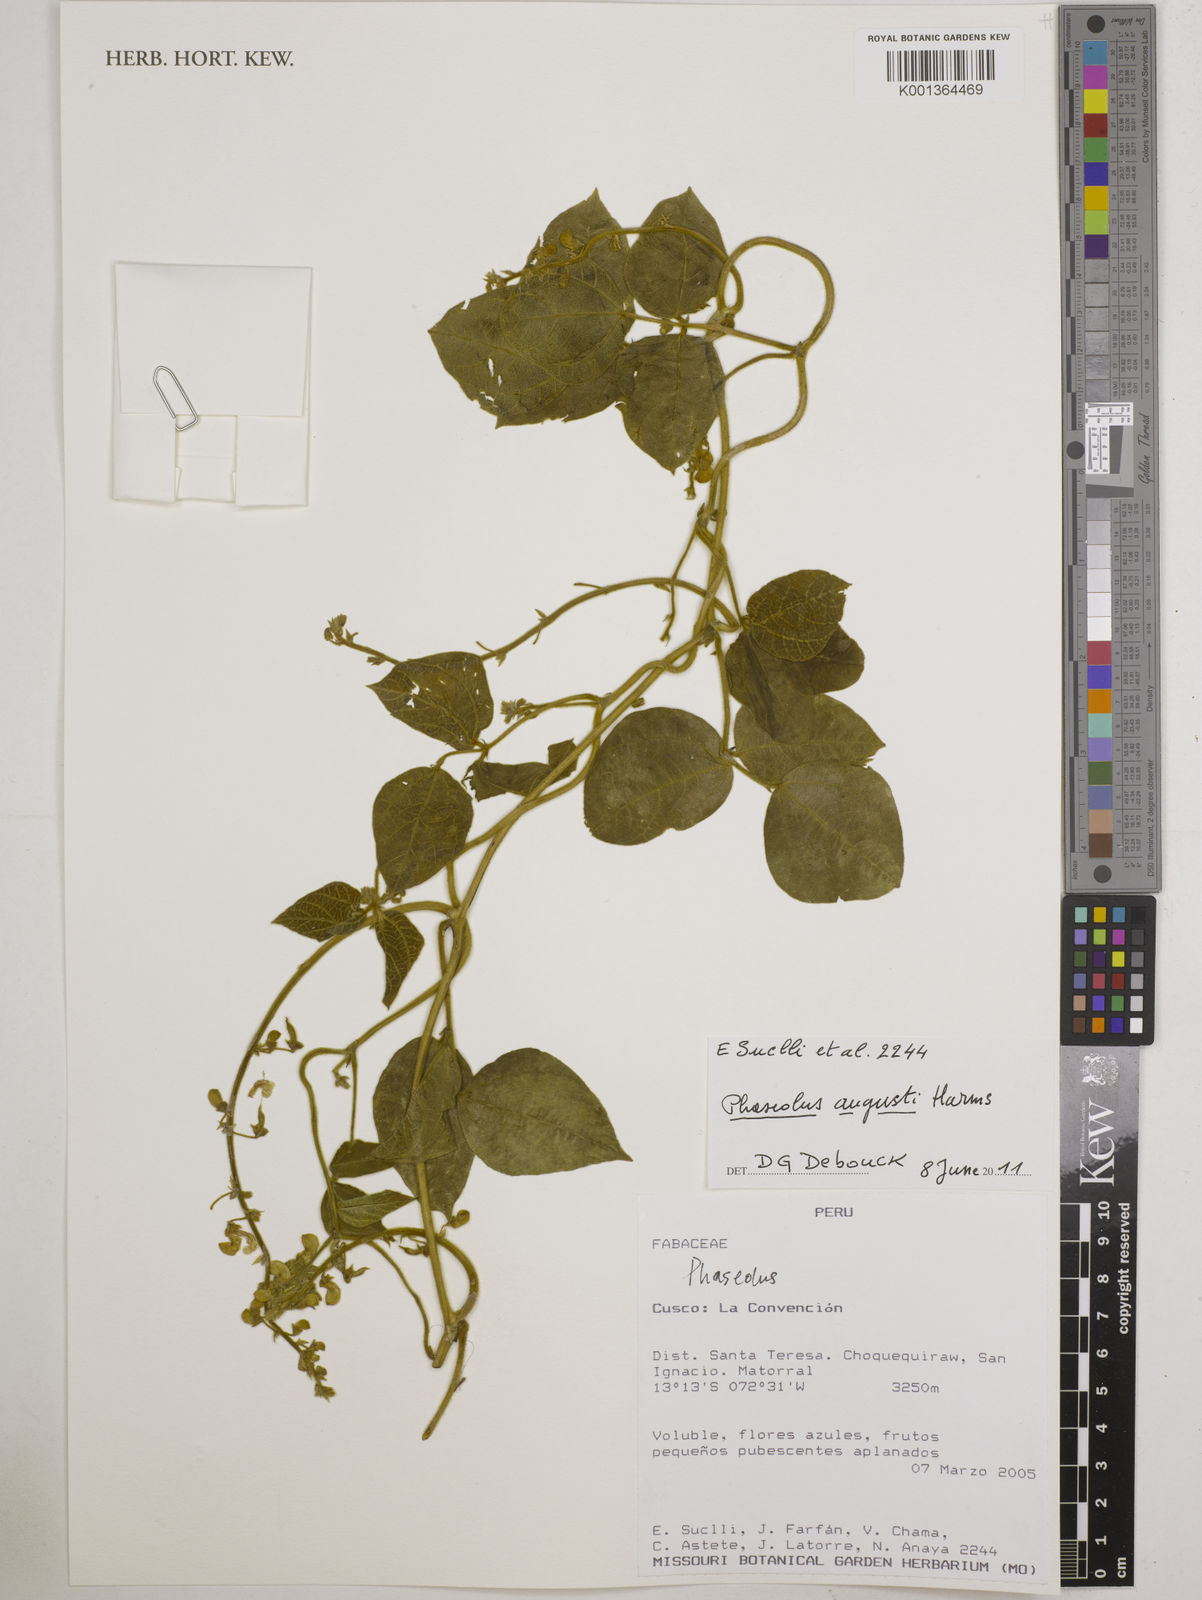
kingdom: Plantae
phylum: Tracheophyta
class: Magnoliopsida
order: Fabales
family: Fabaceae
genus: Phaseolus
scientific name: Phaseolus augusti
